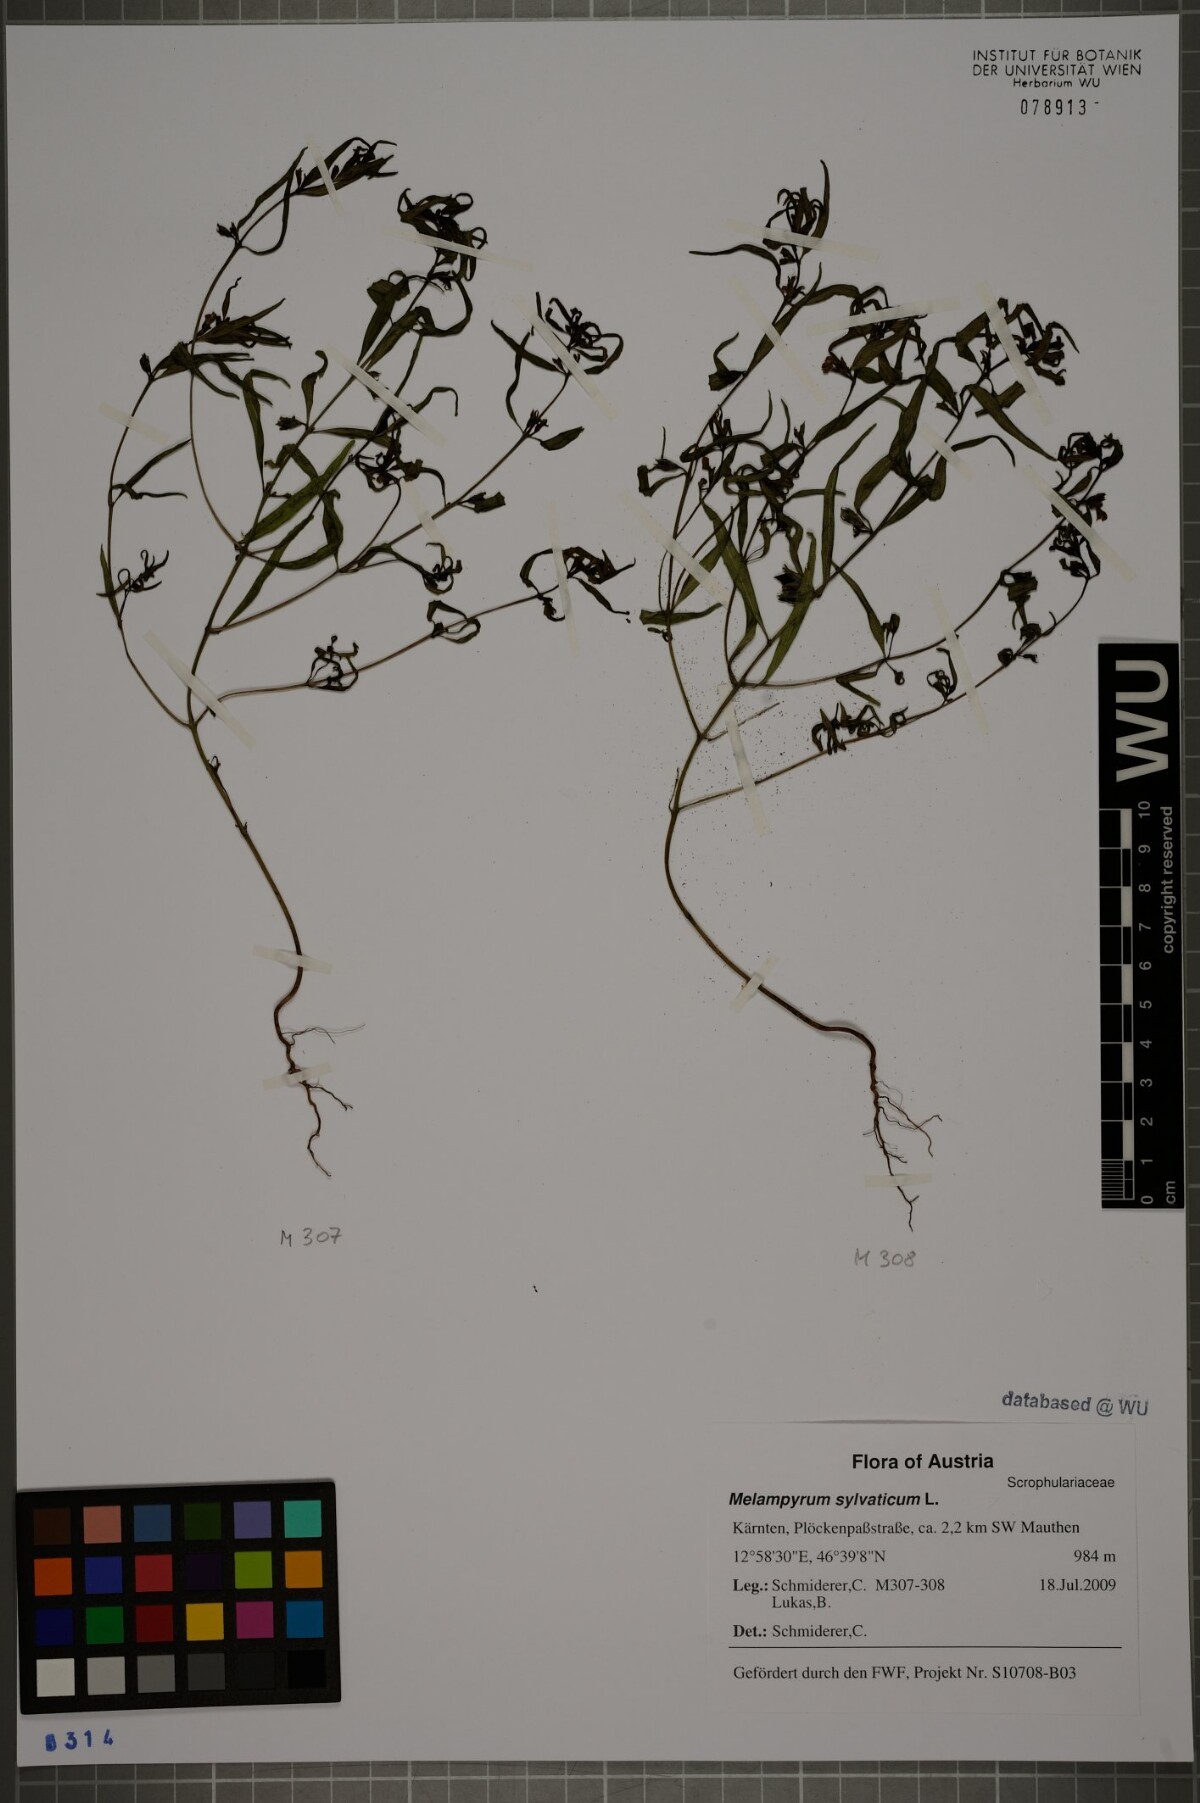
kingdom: Plantae
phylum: Tracheophyta
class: Magnoliopsida
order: Lamiales
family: Orobanchaceae
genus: Melampyrum
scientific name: Melampyrum sylvaticum
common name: Small cow-wheat
